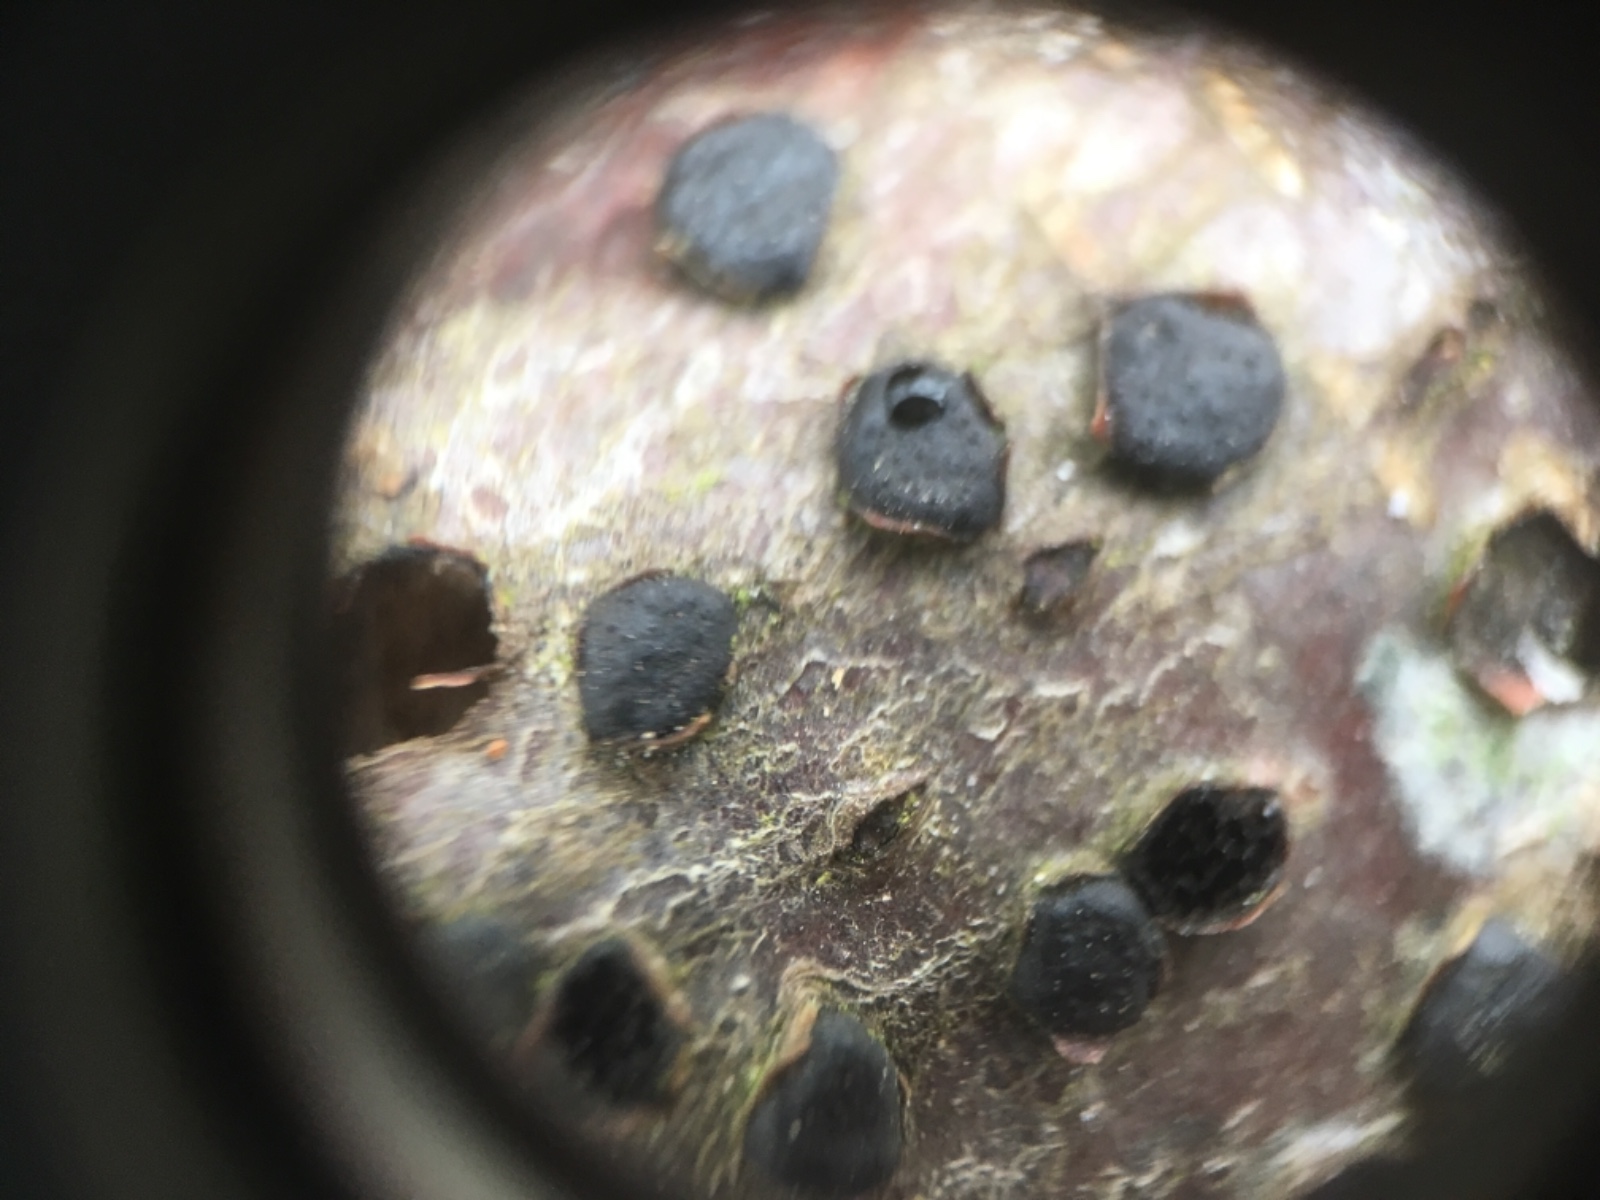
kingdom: Fungi
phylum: Ascomycota
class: Sordariomycetes
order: Xylariales
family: Diatrypaceae
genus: Diatrype
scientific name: Diatrype disciformis
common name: kant-kulskorpe
